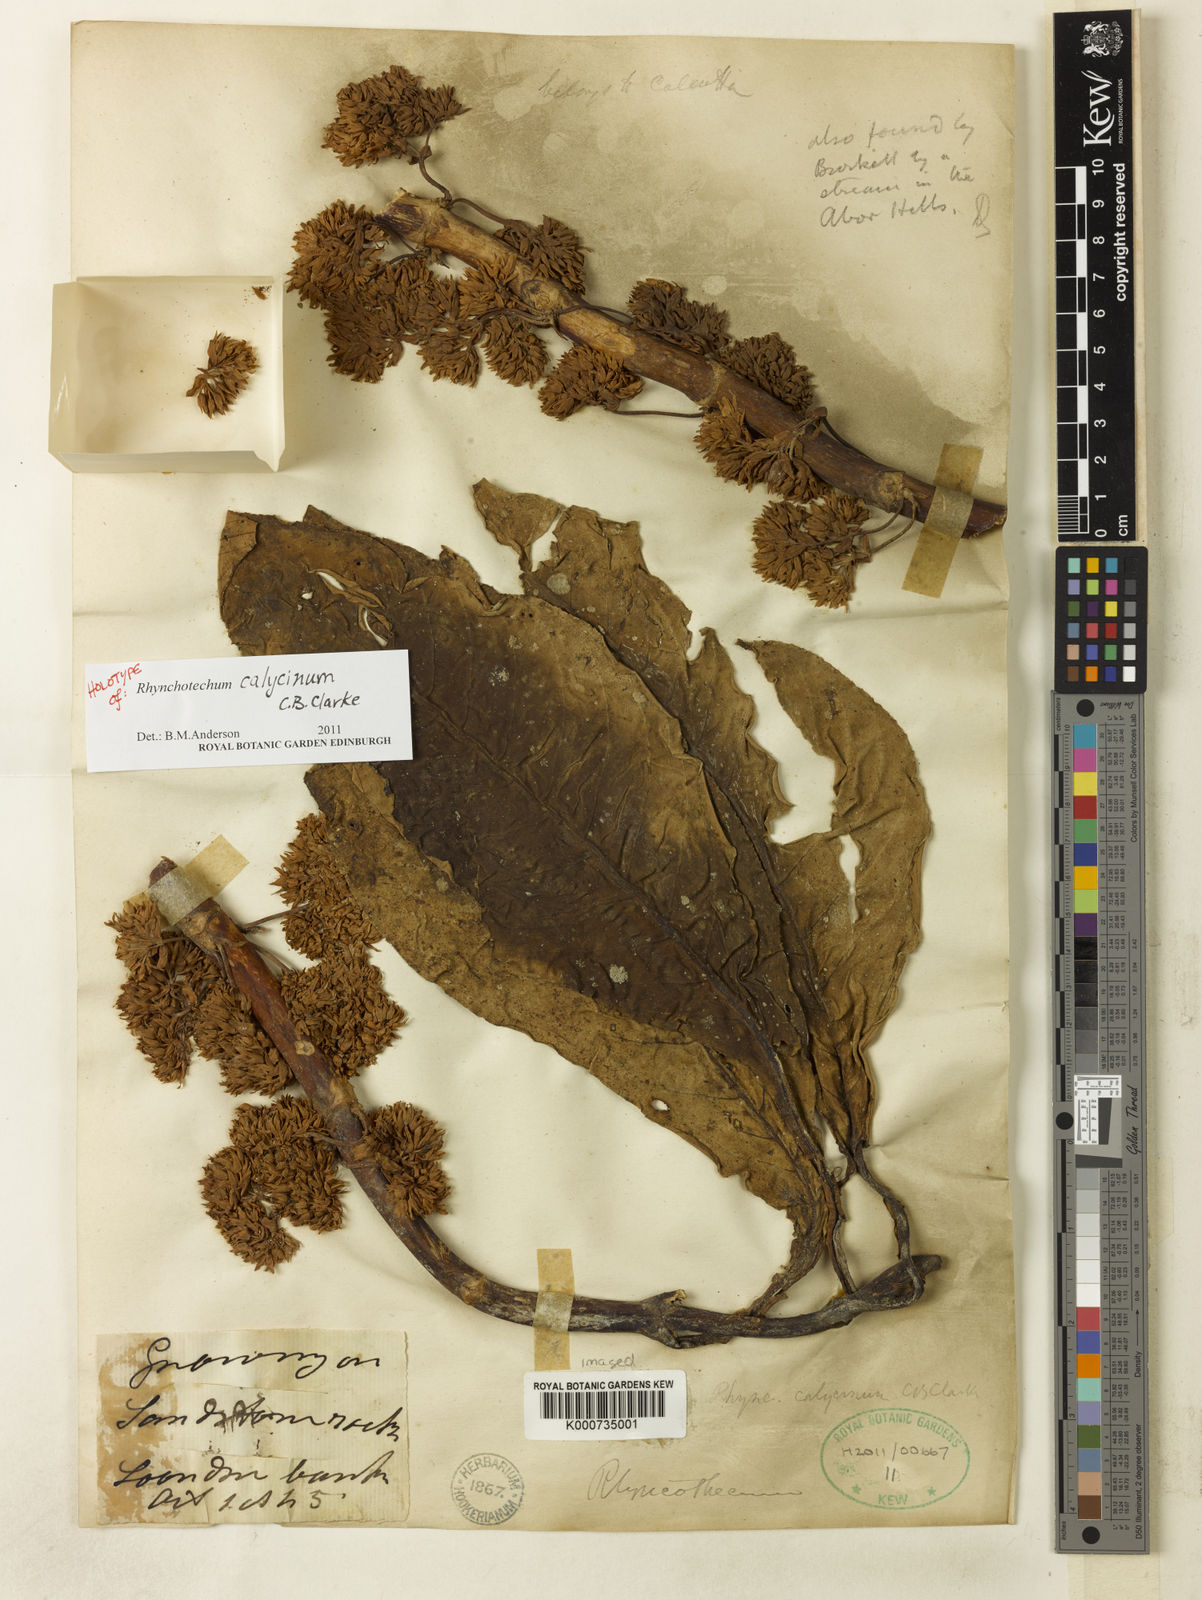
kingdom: Plantae
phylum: Tracheophyta
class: Magnoliopsida
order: Lamiales
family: Gesneriaceae
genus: Rhynchotechum
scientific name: Rhynchotechum calycinum
